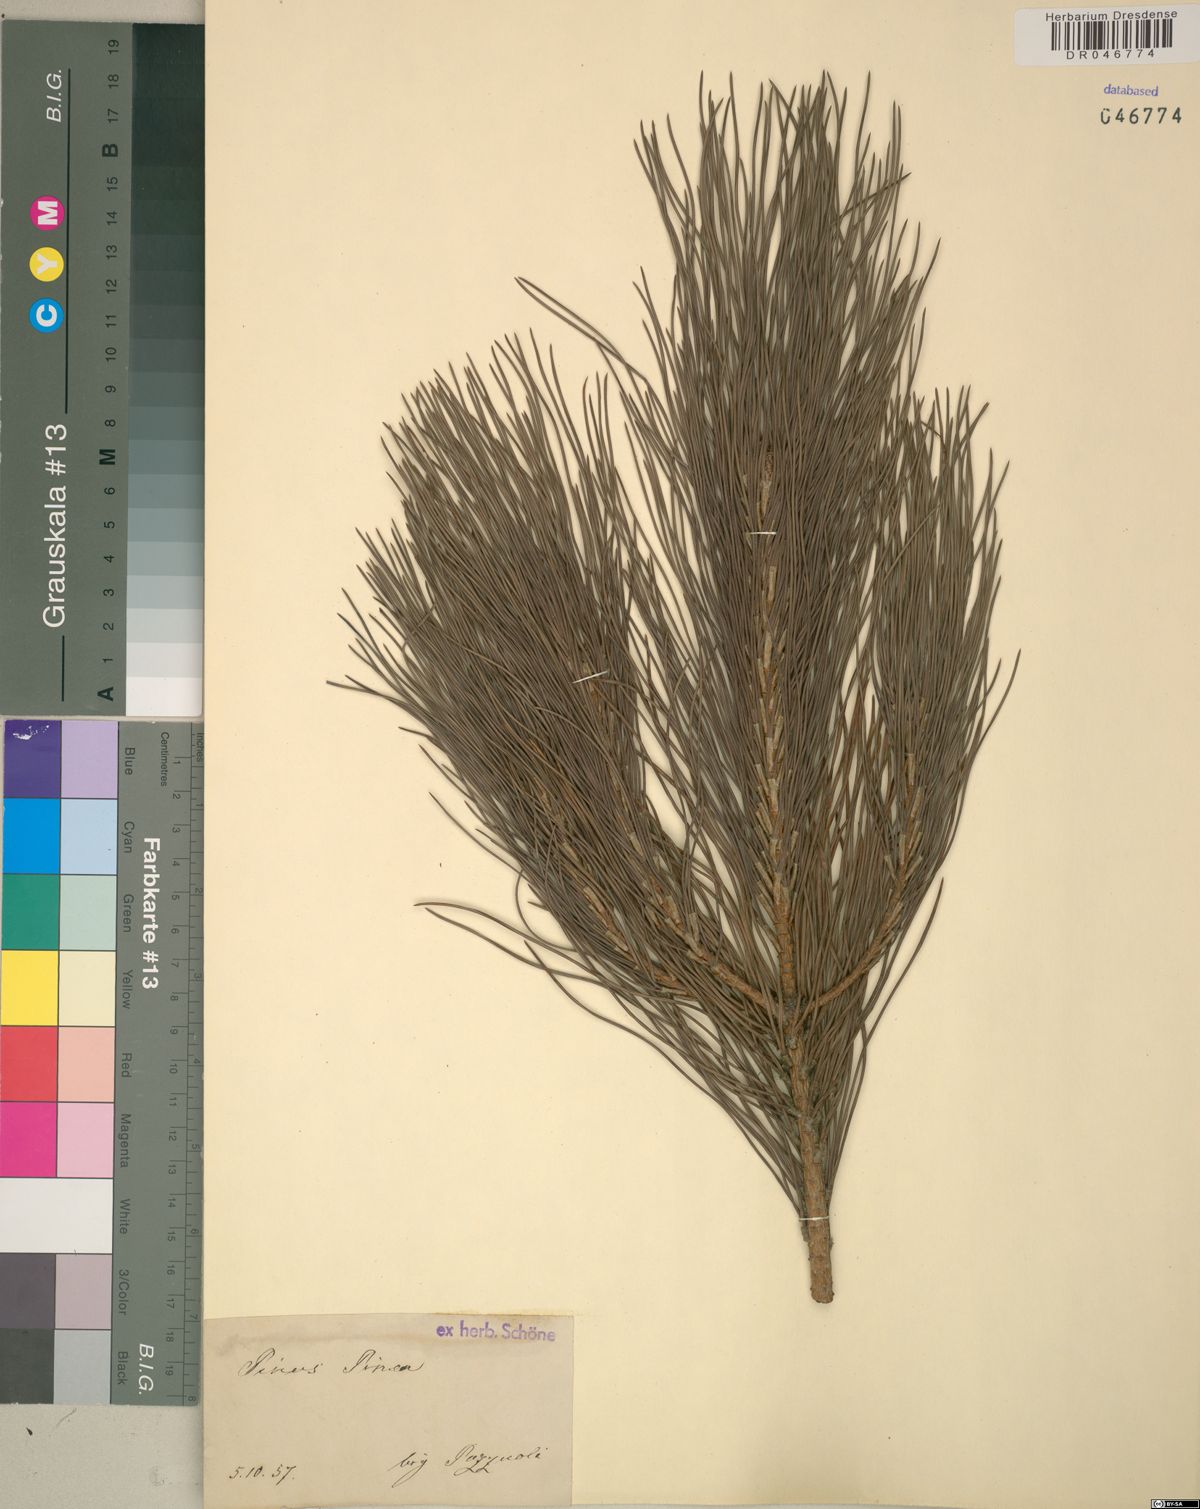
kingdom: Plantae
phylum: Tracheophyta
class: Pinopsida
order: Pinales
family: Pinaceae
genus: Pinus
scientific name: Pinus pinea
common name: Italian stone pine
